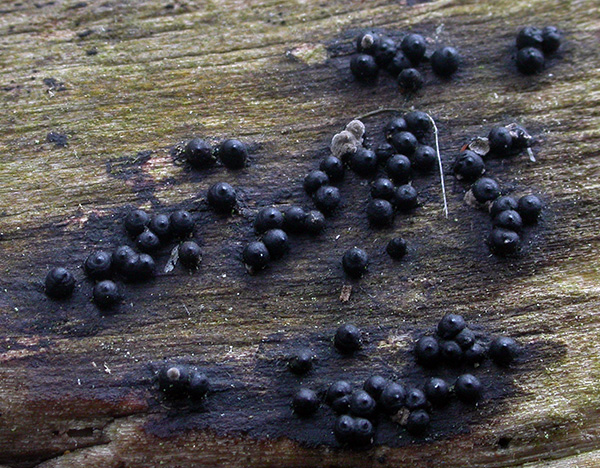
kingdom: Fungi
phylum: Ascomycota
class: Sordariomycetes
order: Xylariales
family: Xylariaceae
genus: Rosellinia
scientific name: Rosellinia marcucciana
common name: måtteløs kulkaviar
